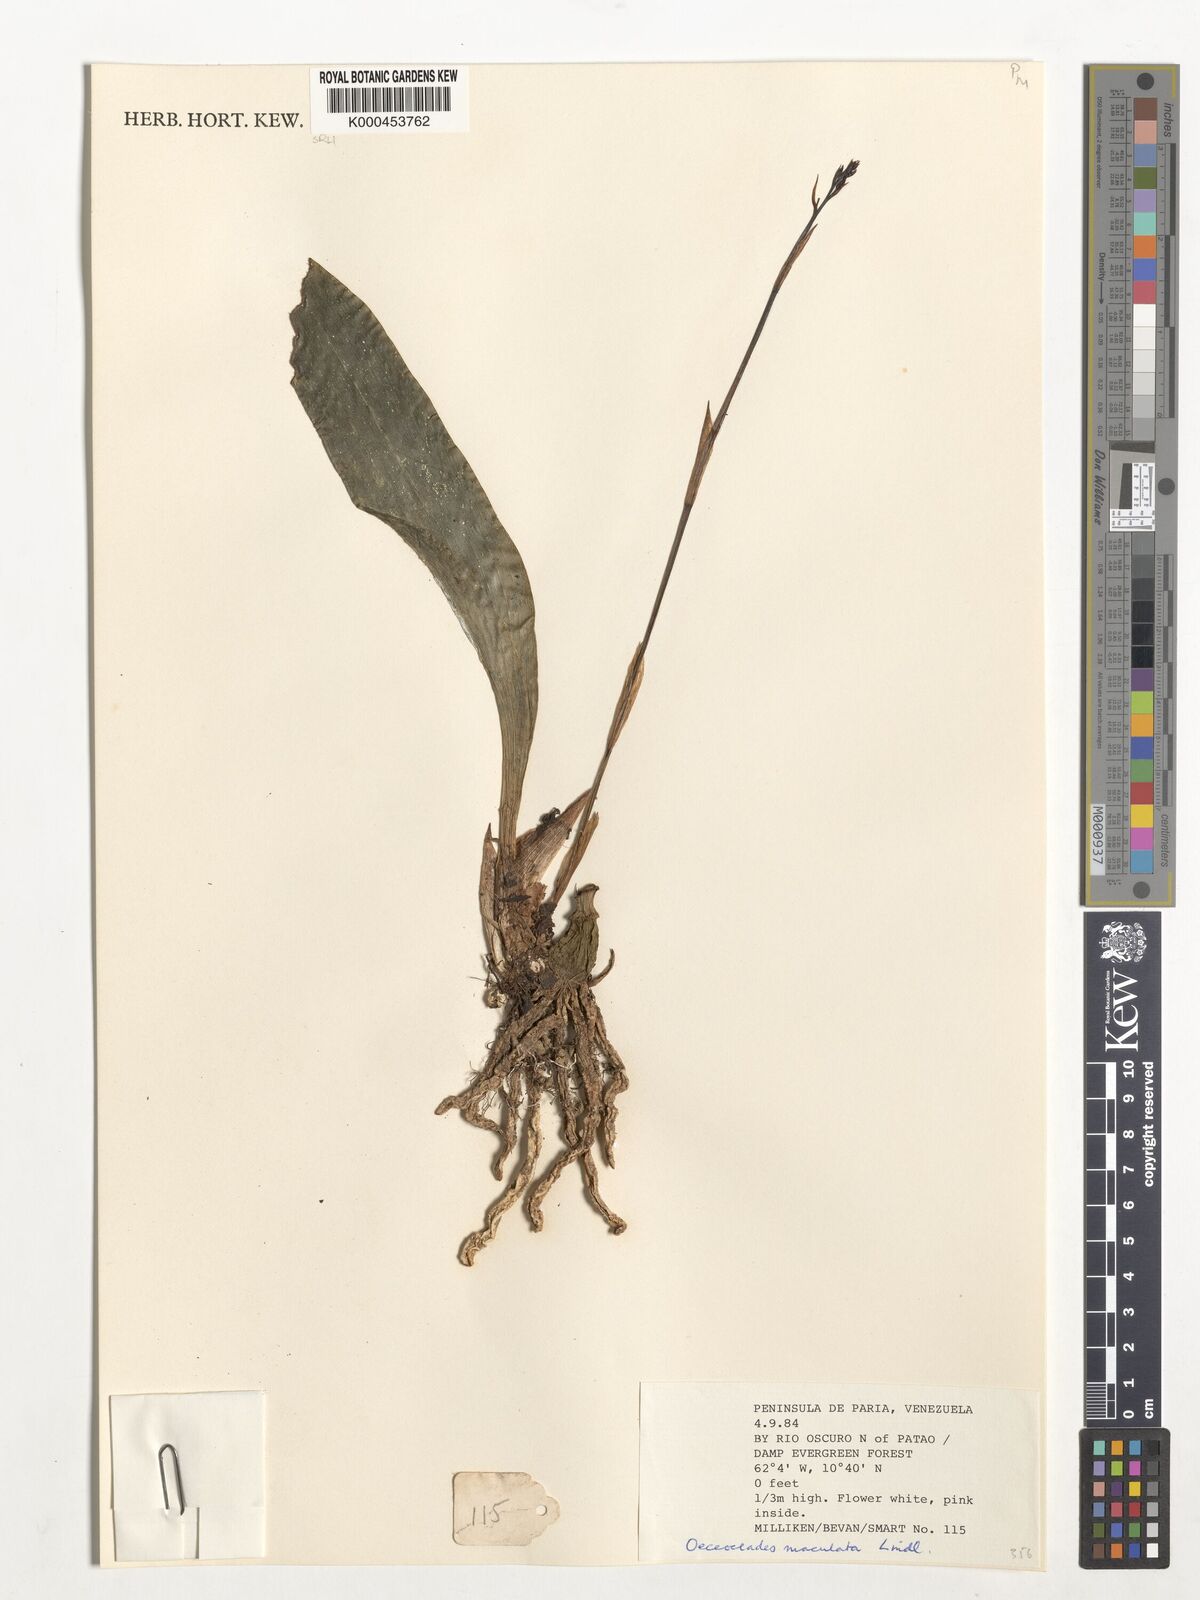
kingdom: Plantae
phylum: Tracheophyta
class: Liliopsida
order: Asparagales
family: Orchidaceae
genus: Eulophia
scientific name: Eulophia maculata
